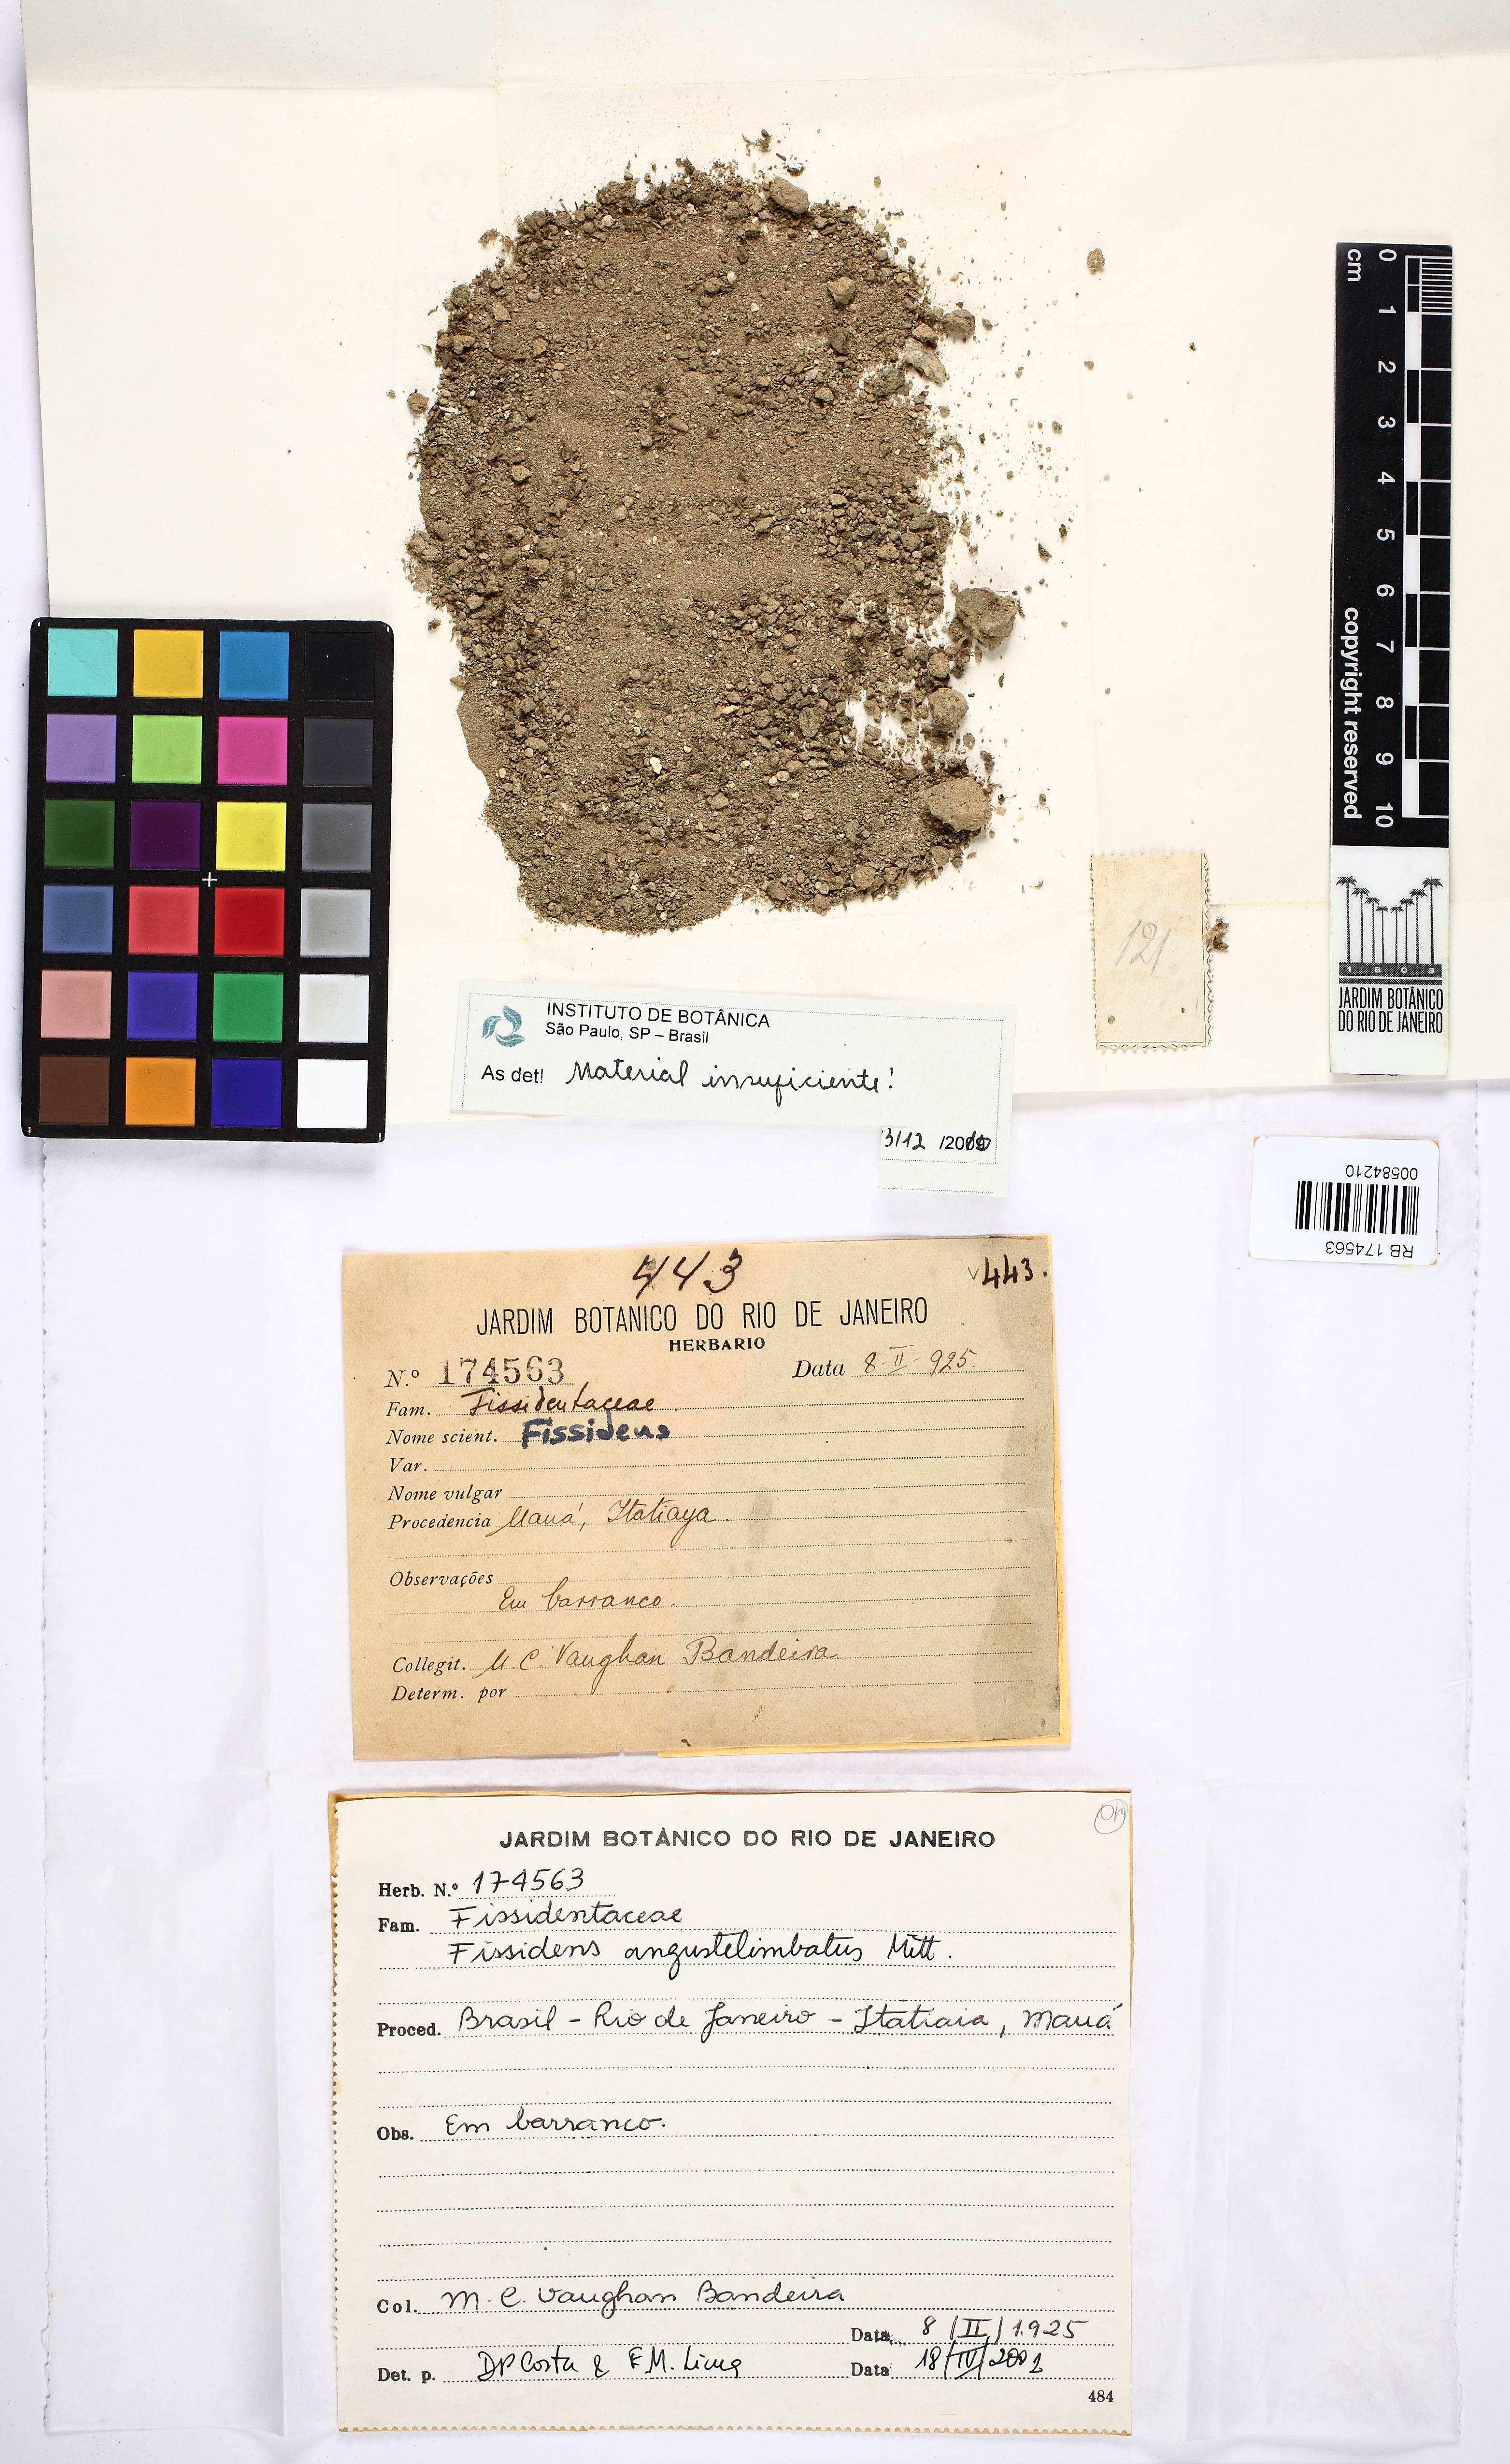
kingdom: Plantae
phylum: Bryophyta
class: Bryopsida
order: Dicranales
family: Fissidentaceae
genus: Fissidens
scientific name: Fissidens angustelimbatus
